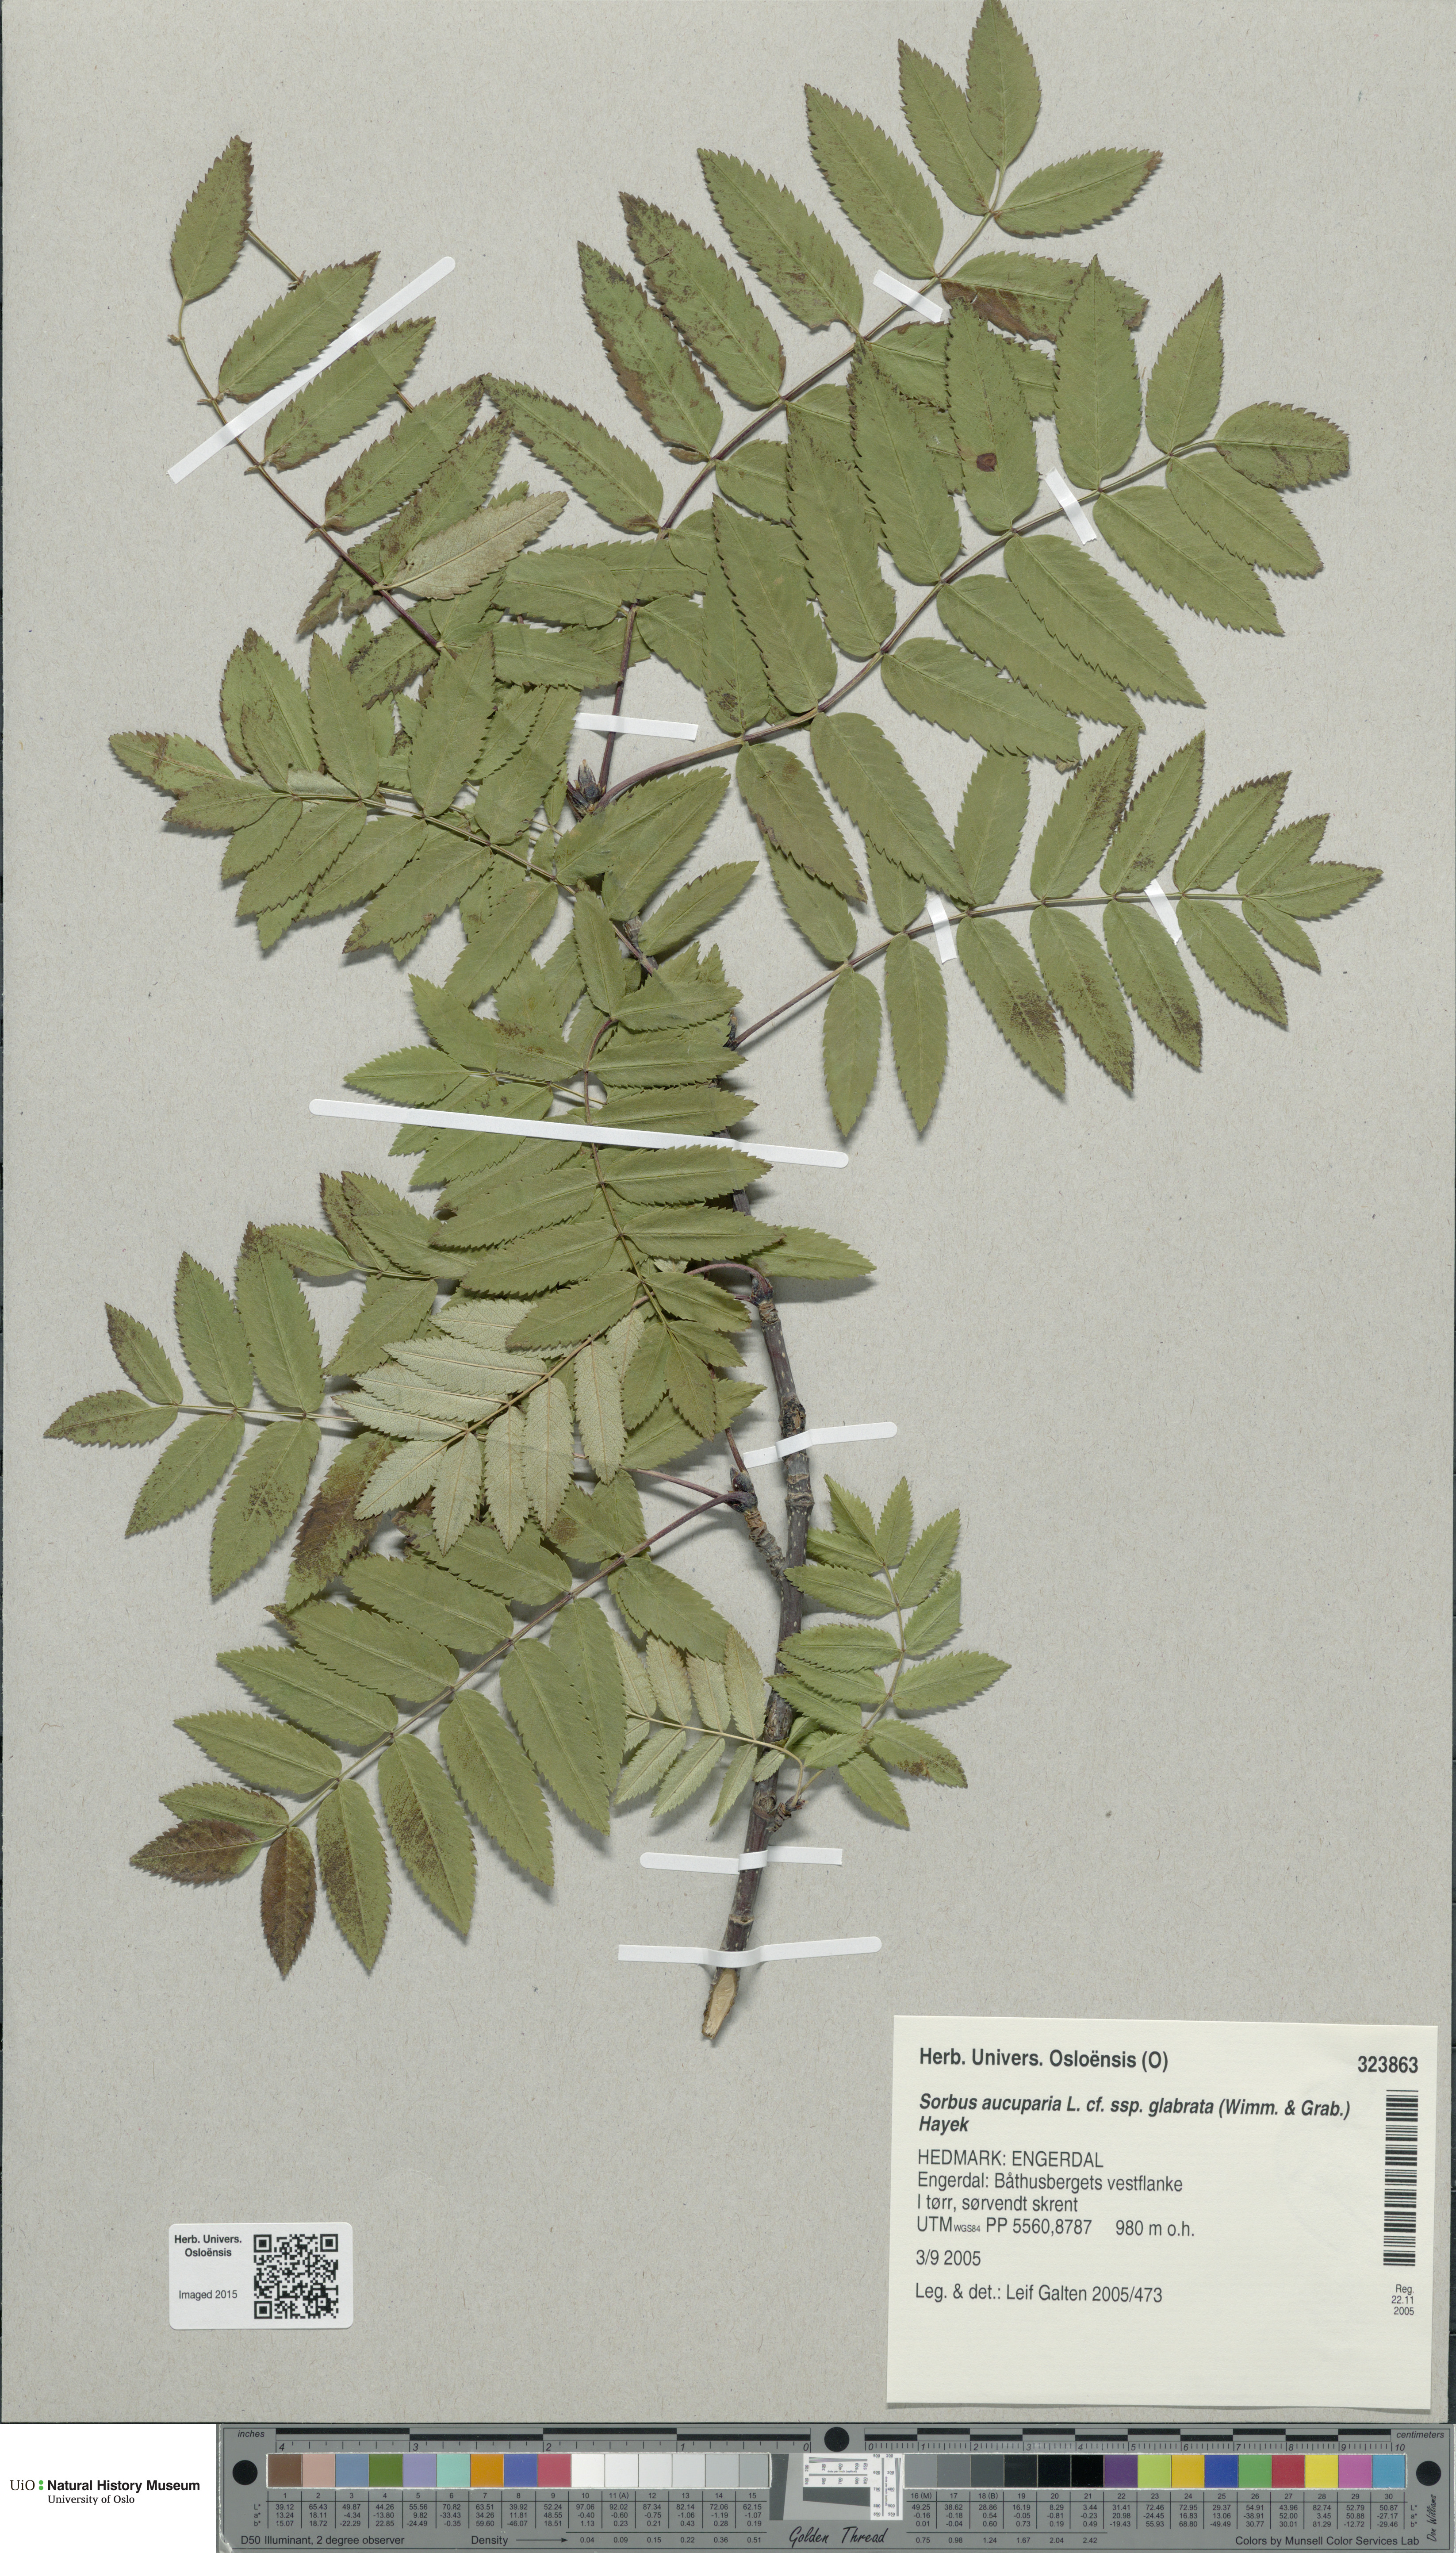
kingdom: Plantae
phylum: Tracheophyta
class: Magnoliopsida
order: Rosales
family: Rosaceae
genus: Sorbus
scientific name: Sorbus aucuparia
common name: Rowan
